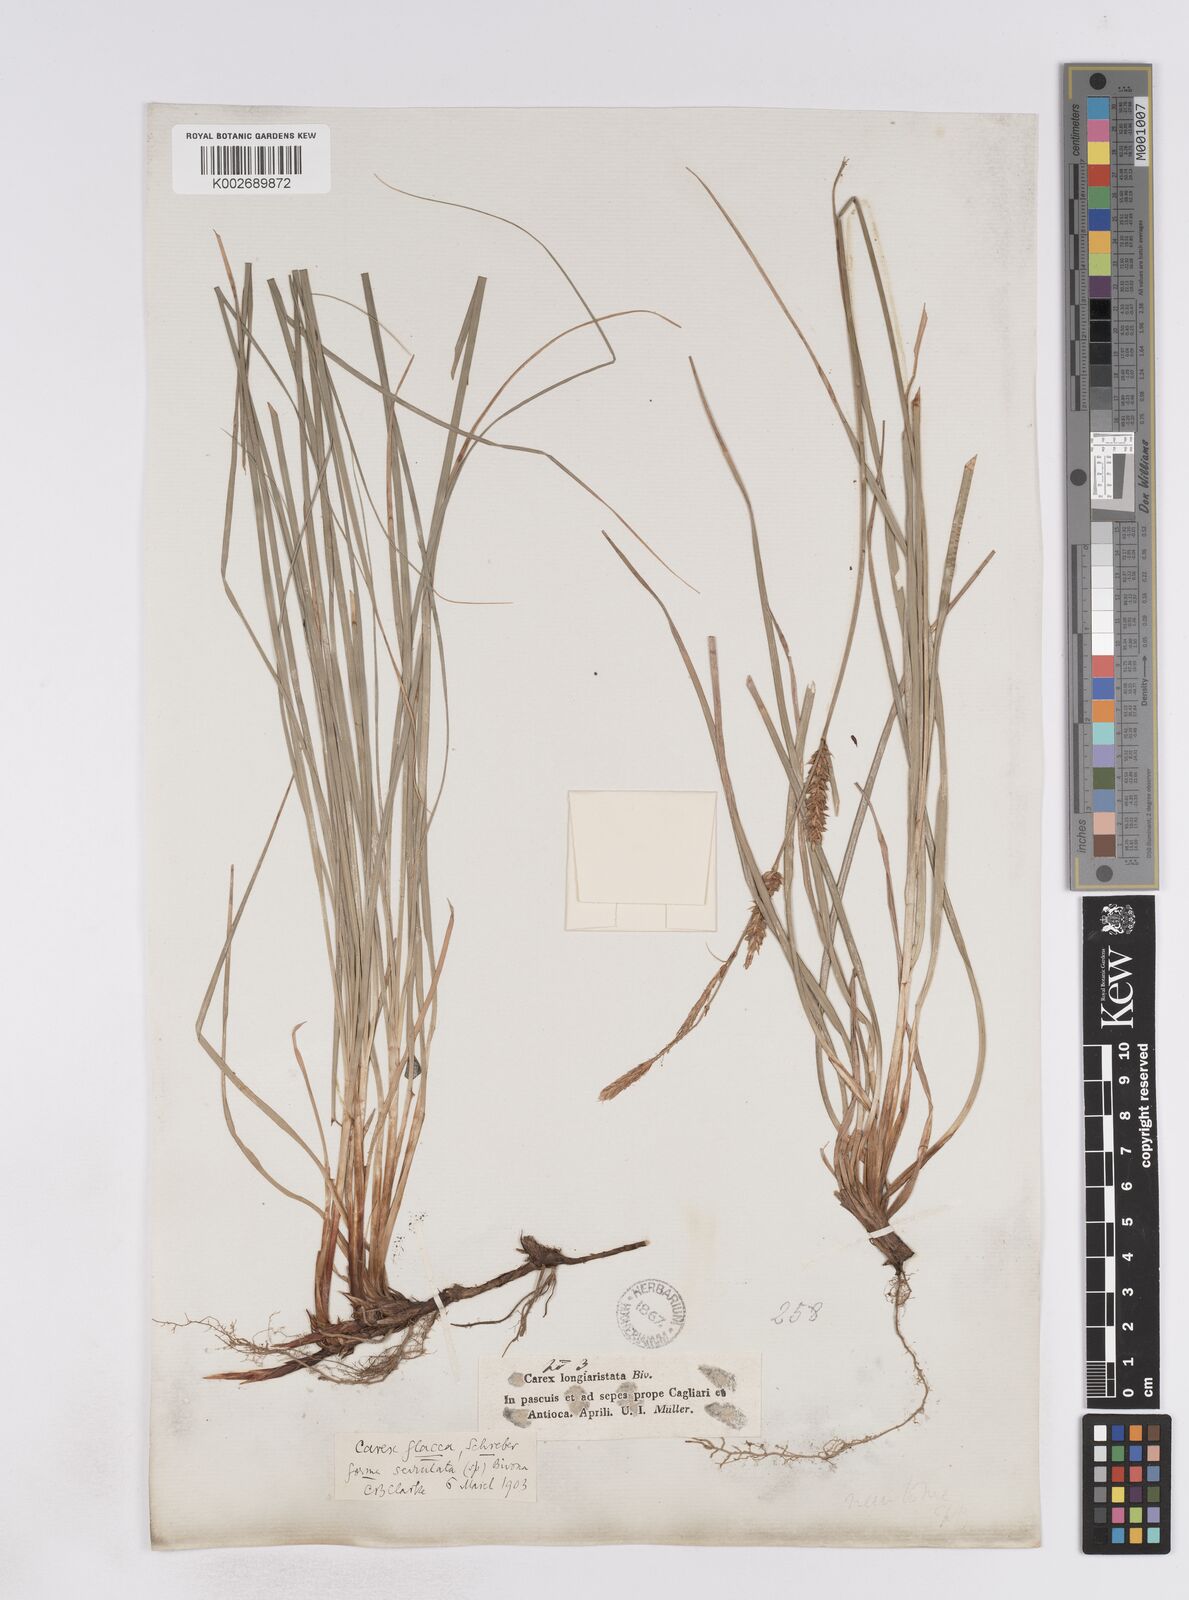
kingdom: Plantae
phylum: Tracheophyta
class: Liliopsida
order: Poales
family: Cyperaceae
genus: Carex
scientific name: Carex hispida
